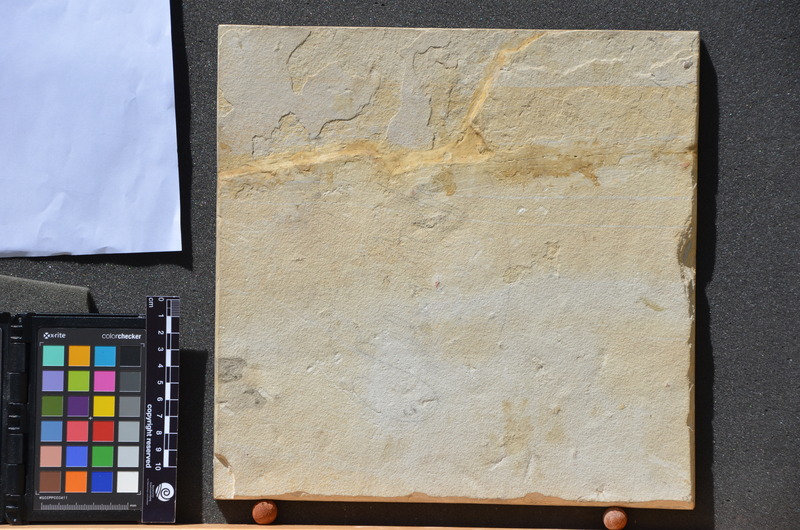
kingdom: Animalia
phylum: Chordata
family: Pycnodontidae
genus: Proscinetes
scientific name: Proscinetes elegans
